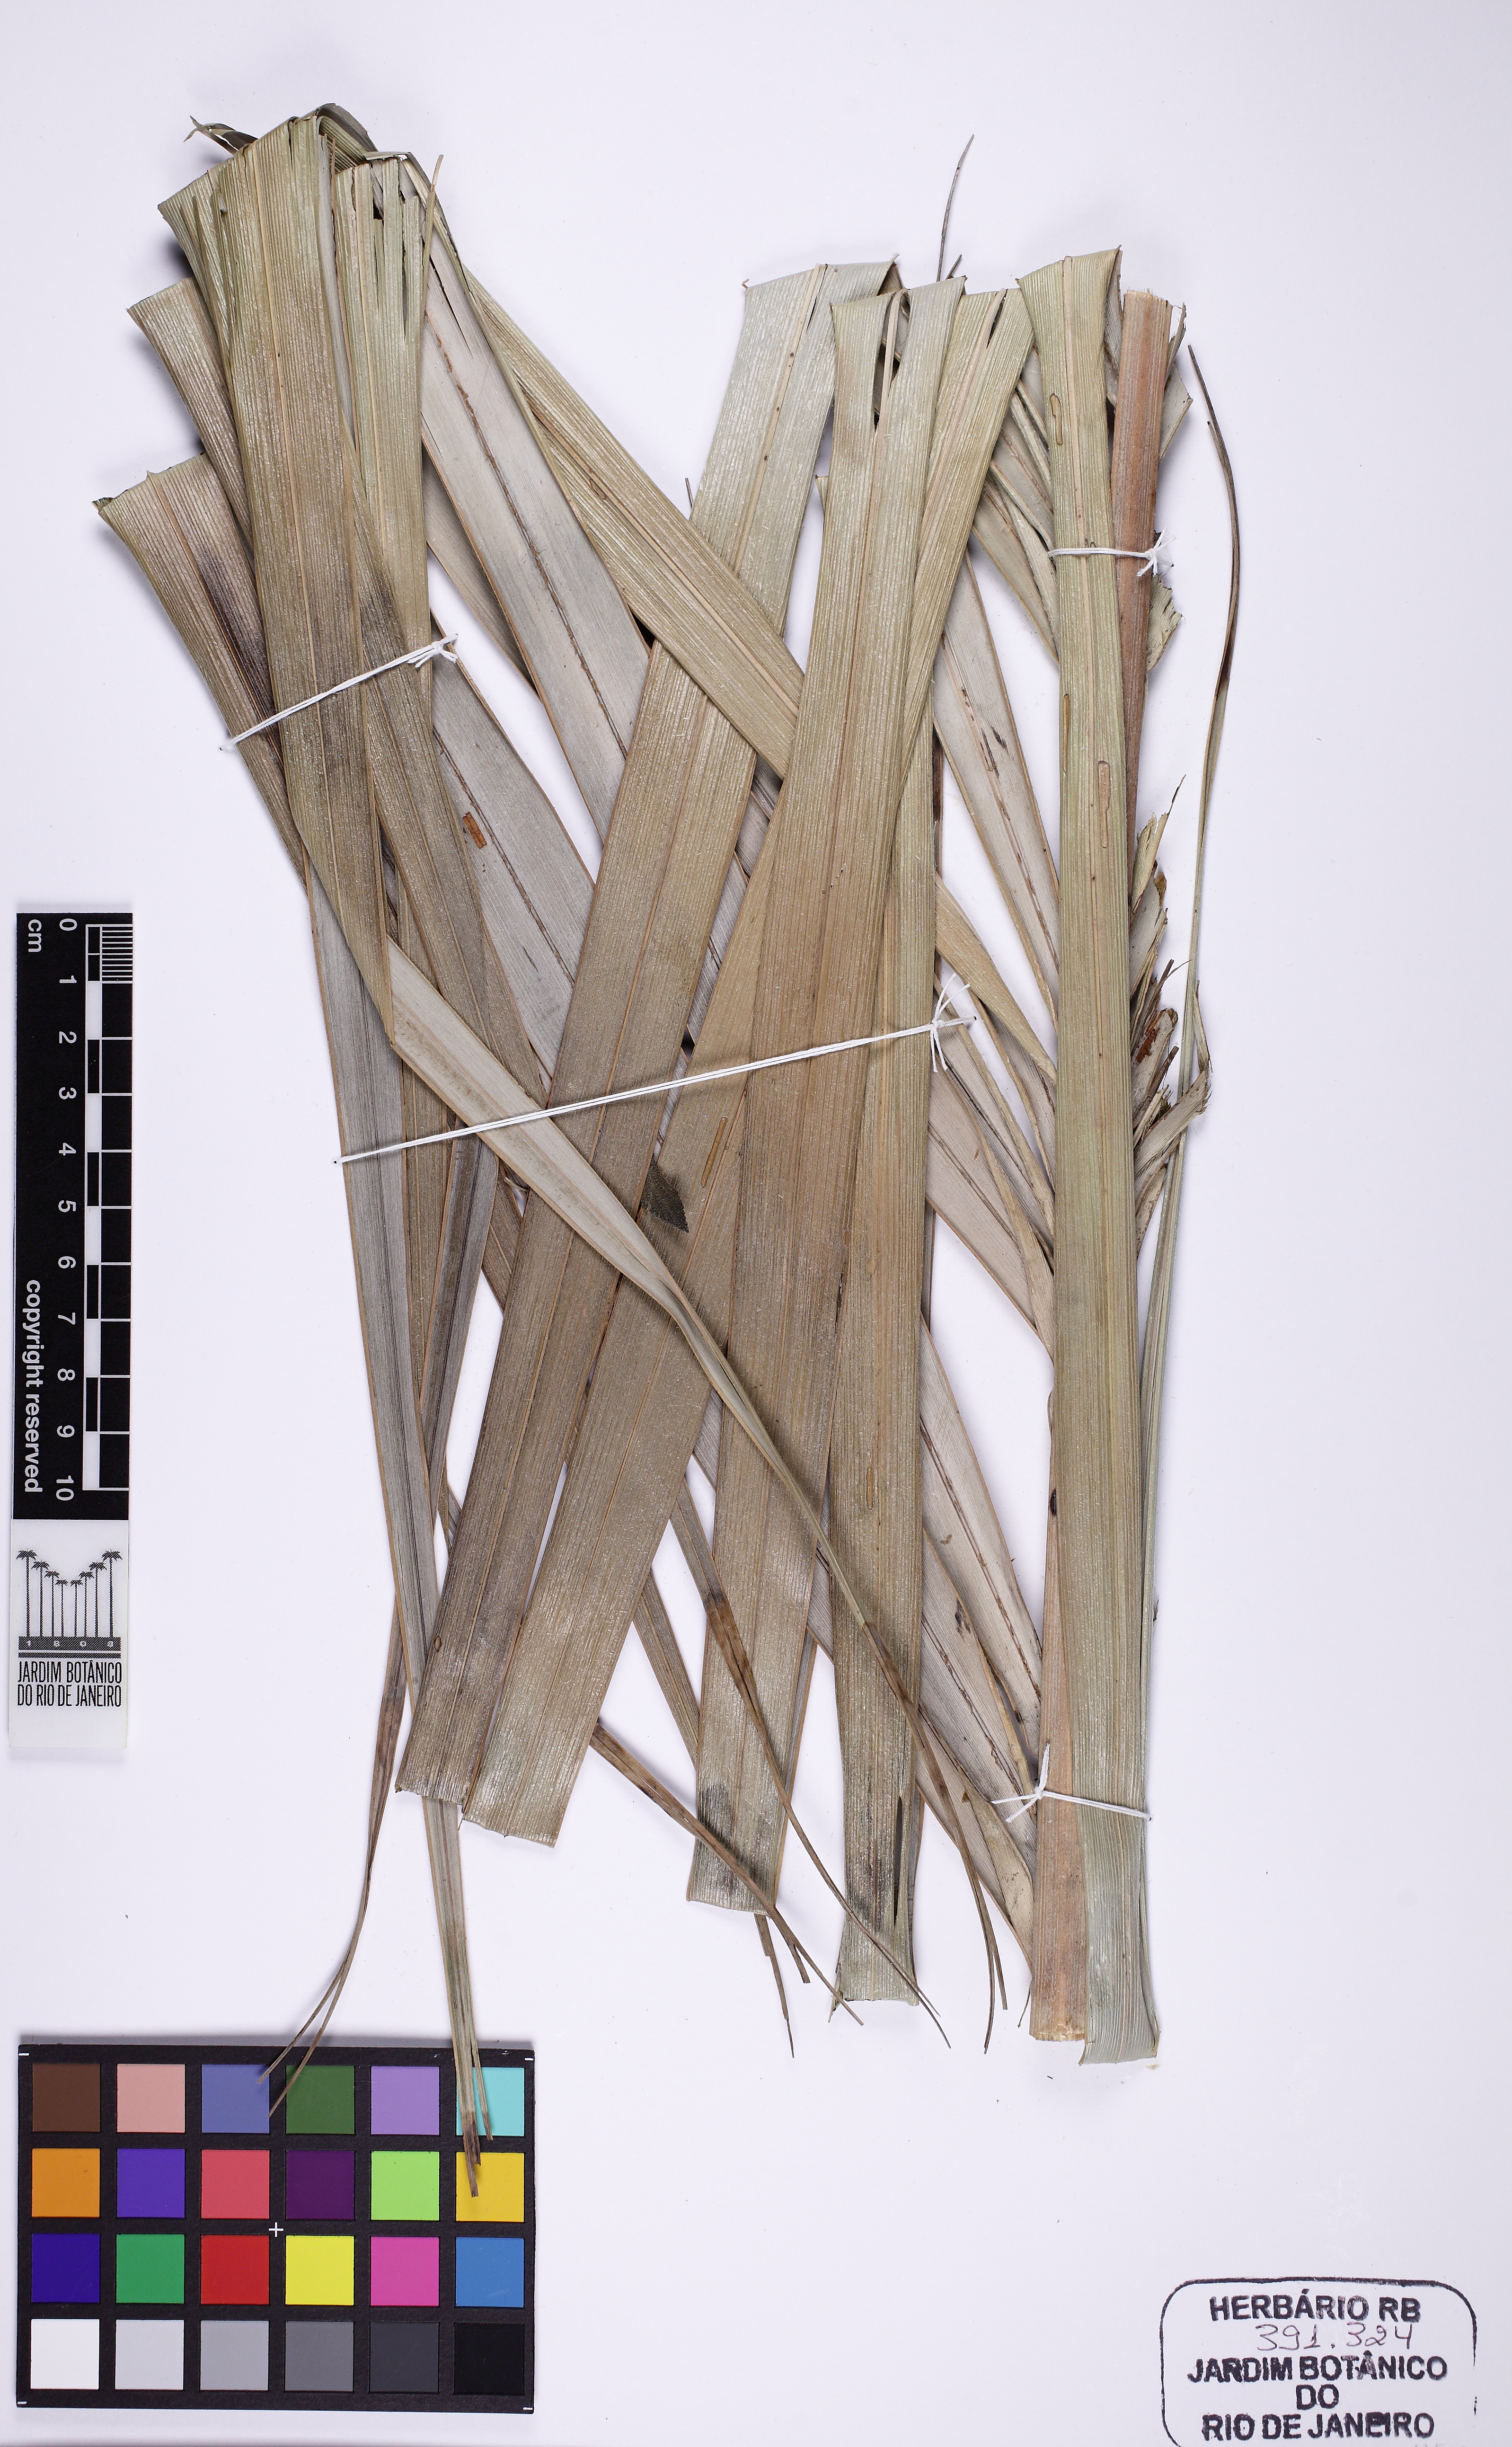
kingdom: Plantae
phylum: Tracheophyta
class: Liliopsida
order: Arecales
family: Arecaceae
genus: Allagoptera
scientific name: Allagoptera leucocalyx
